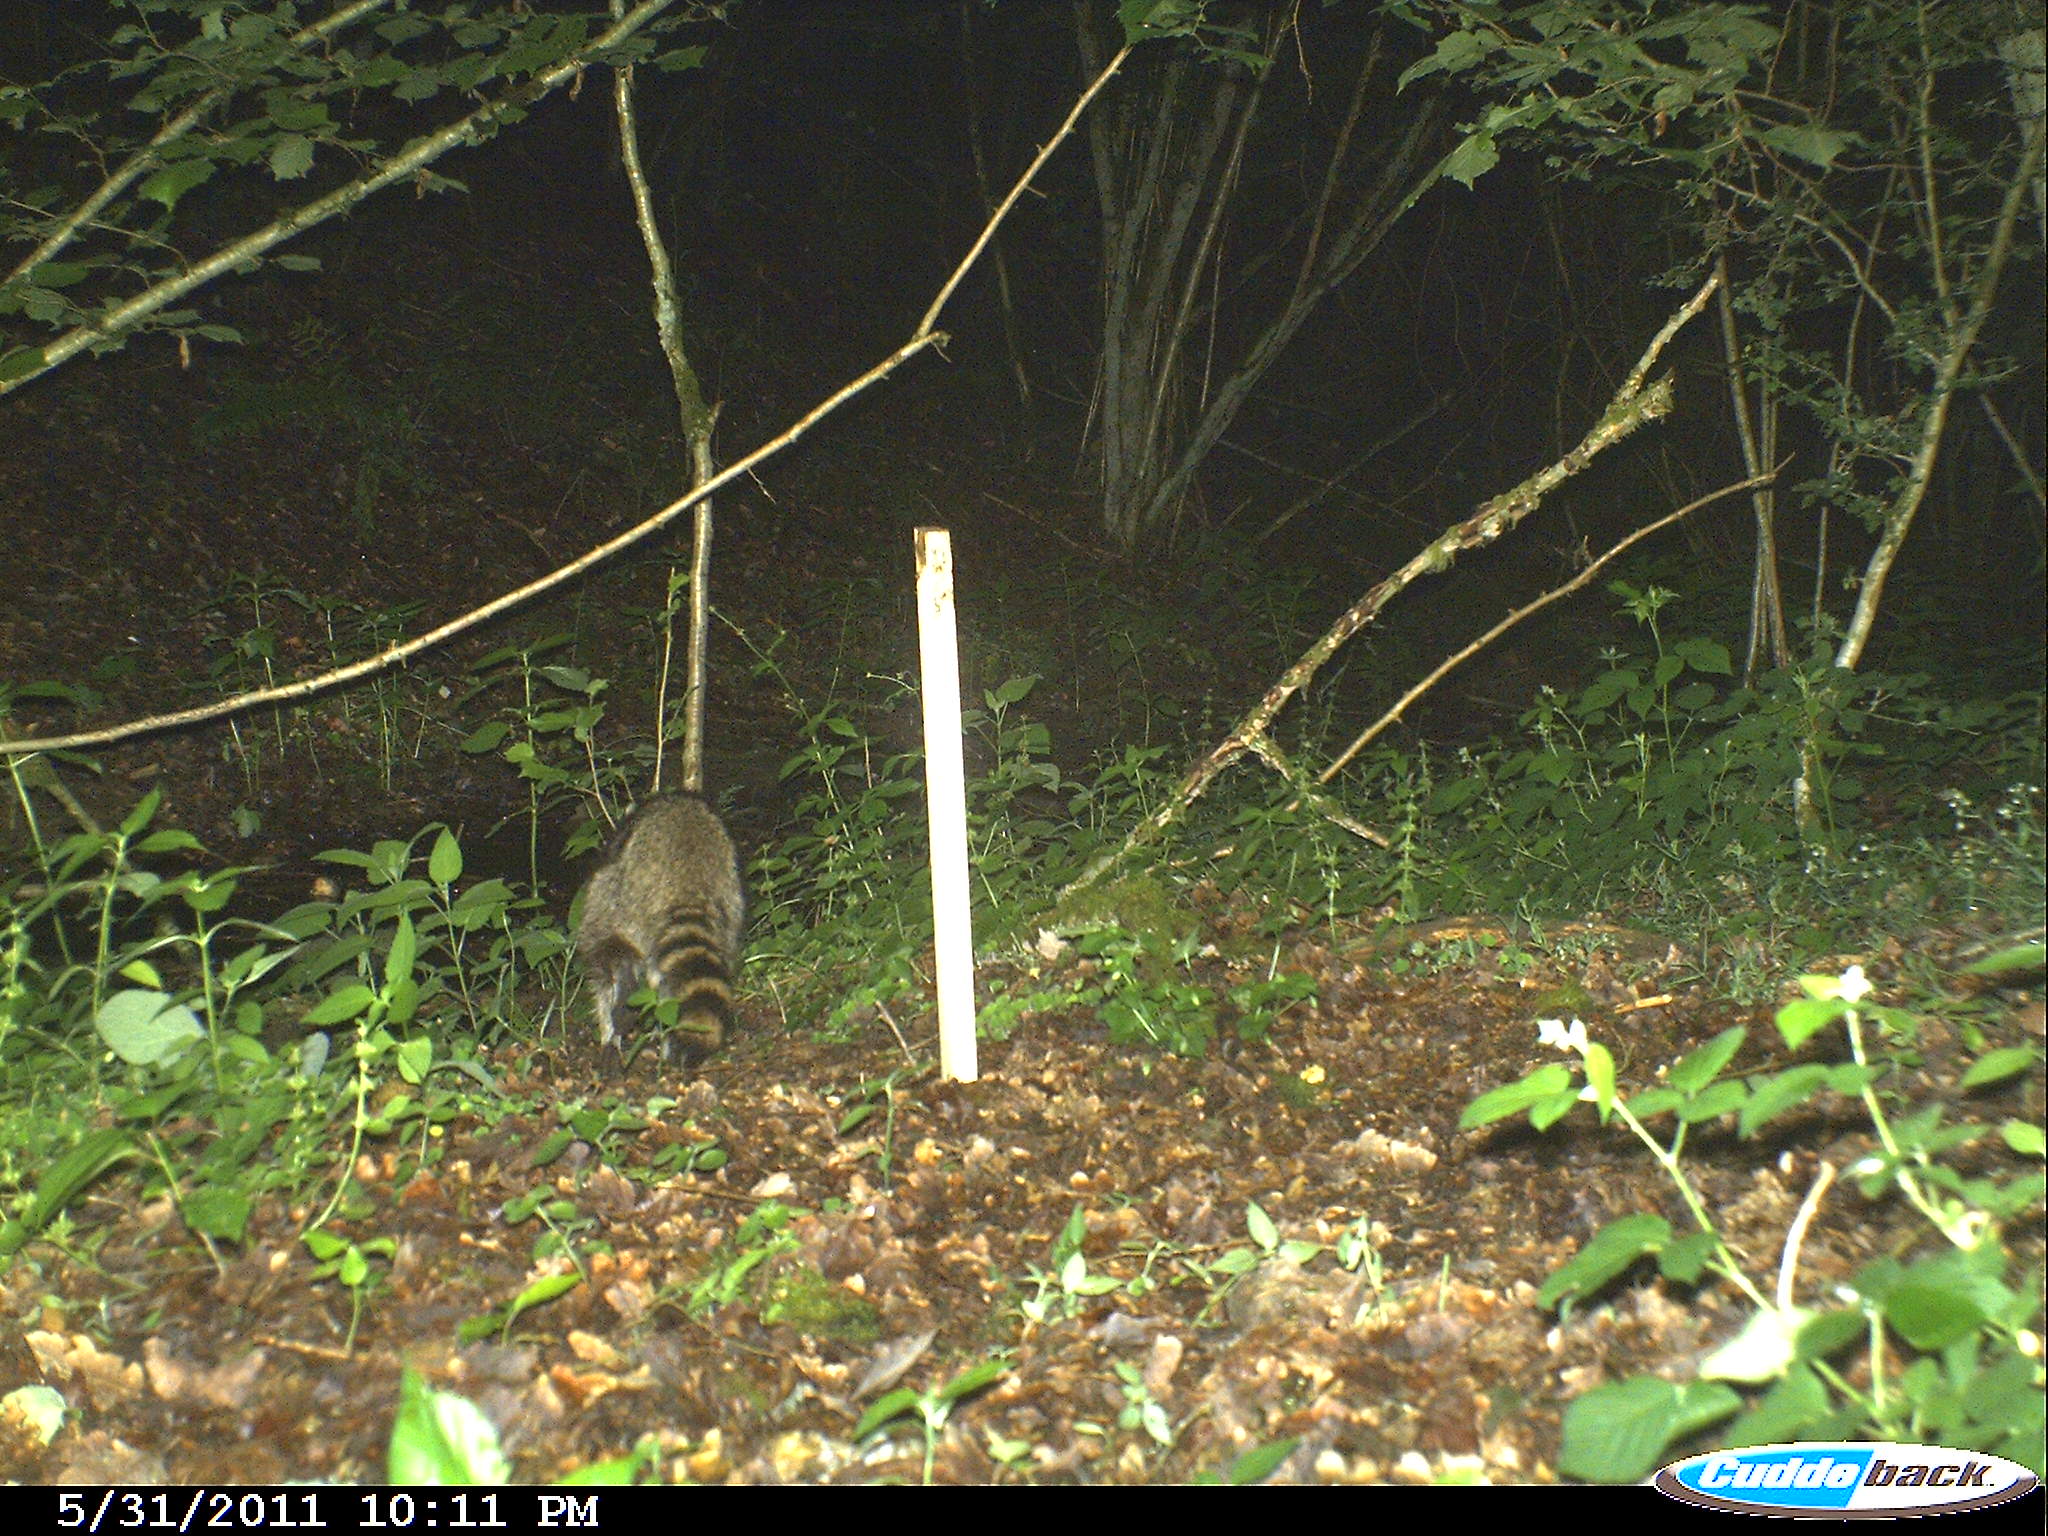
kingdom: Animalia
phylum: Chordata
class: Mammalia
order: Carnivora
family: Procyonidae
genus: Procyon
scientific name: Procyon lotor
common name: Raccoon
